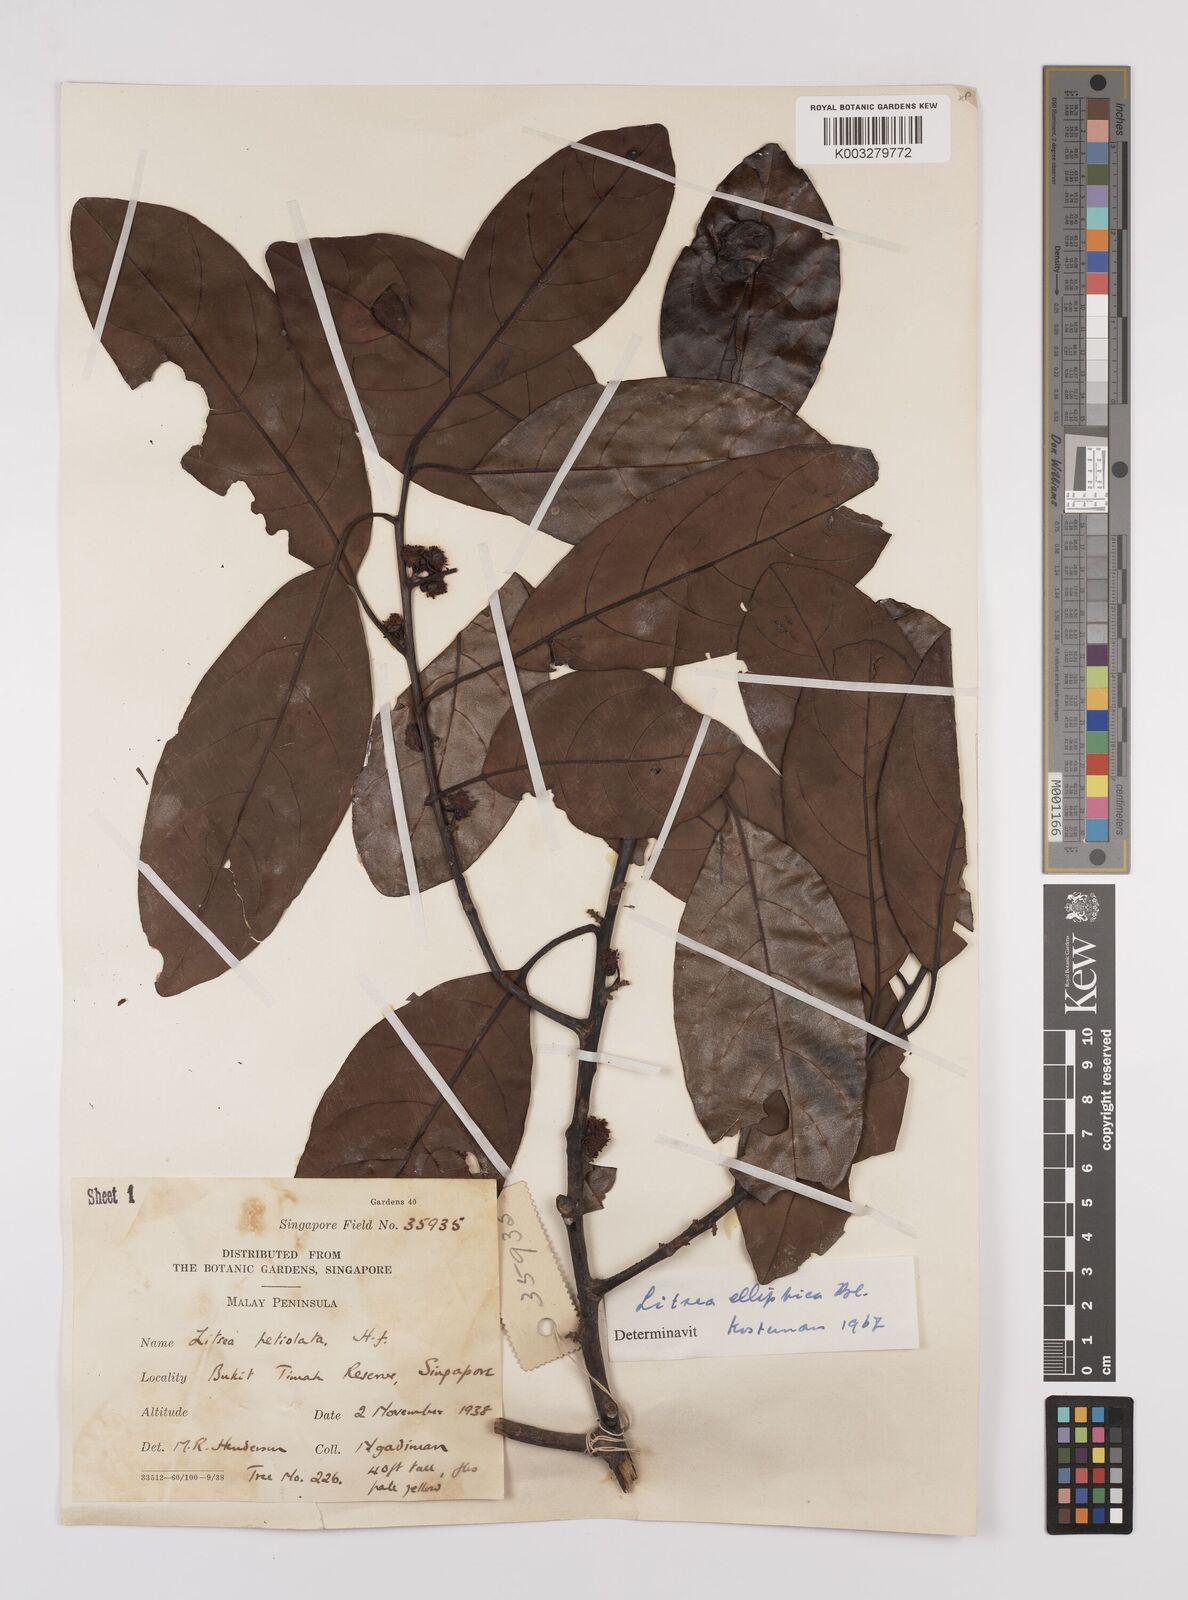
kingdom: Plantae
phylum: Tracheophyta
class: Magnoliopsida
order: Laurales
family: Lauraceae
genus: Litsea
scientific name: Litsea elliptica
